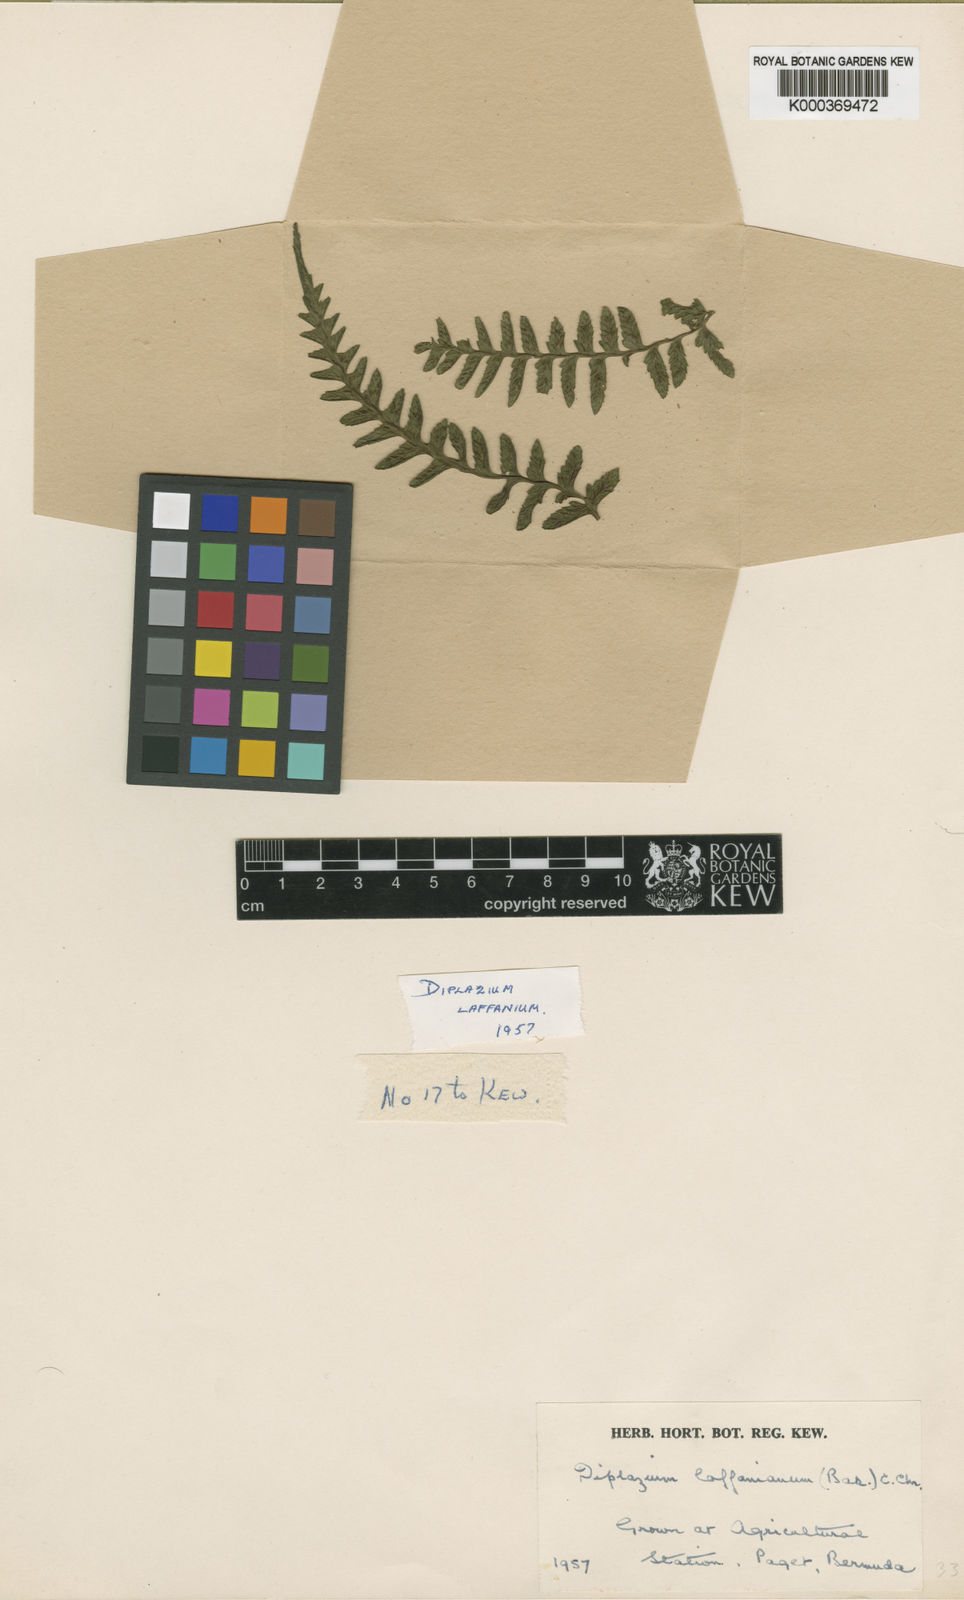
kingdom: Plantae
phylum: Tracheophyta
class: Polypodiopsida
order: Polypodiales
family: Athyriaceae
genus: Diplazium
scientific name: Diplazium laffanianum
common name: Governor laffan's fern
